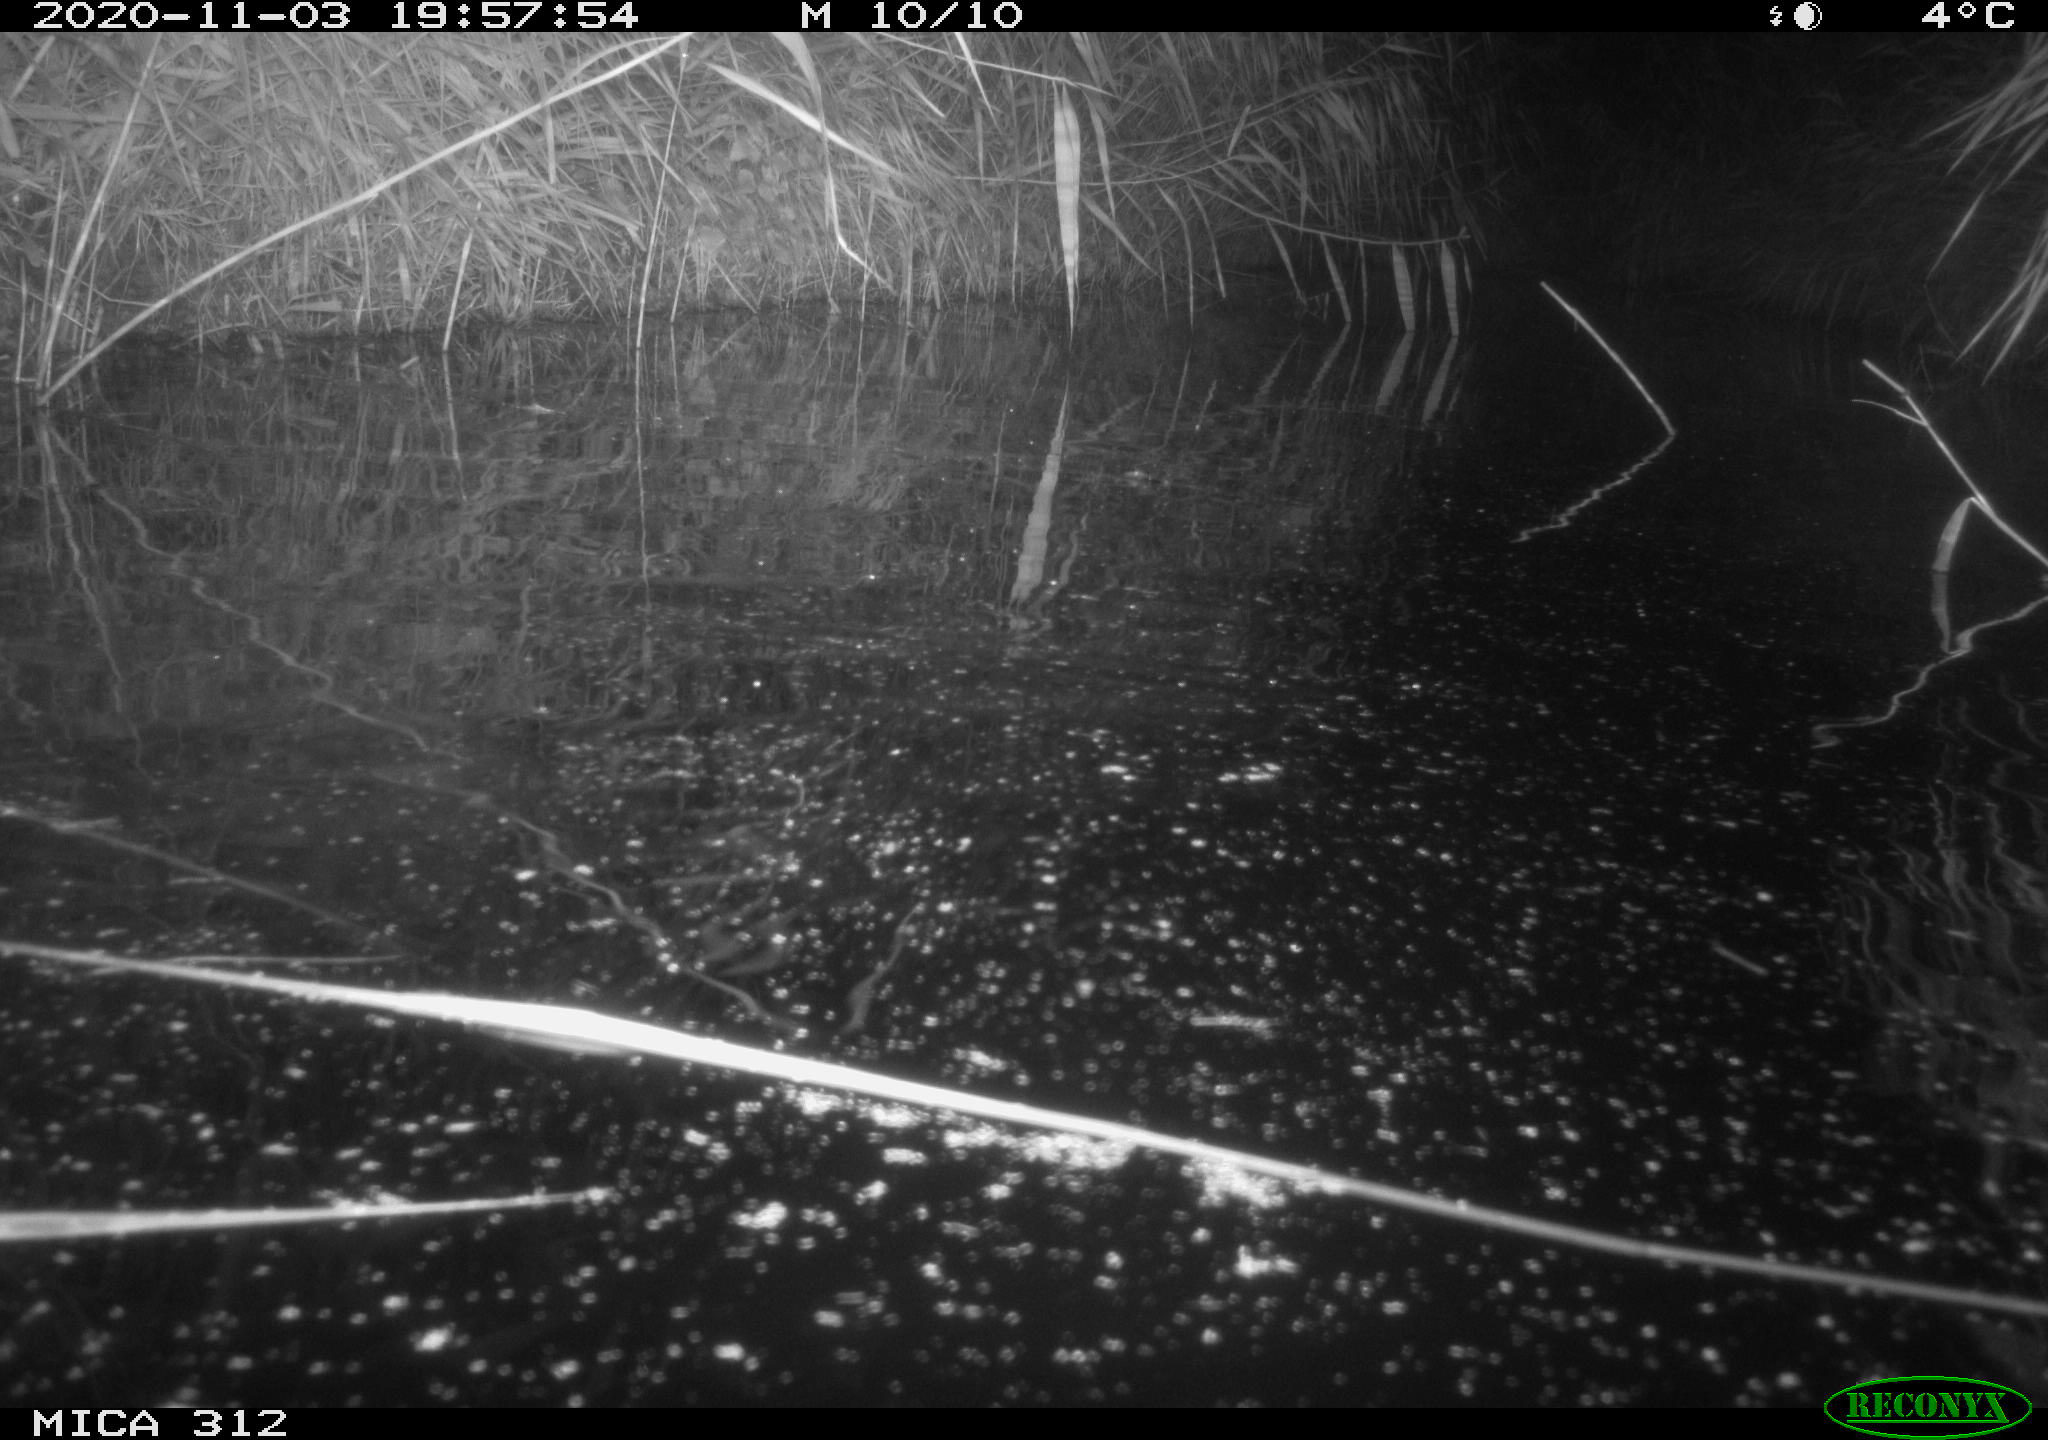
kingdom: Animalia
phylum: Chordata
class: Mammalia
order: Rodentia
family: Cricetidae
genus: Ondatra
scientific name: Ondatra zibethicus
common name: Muskrat
